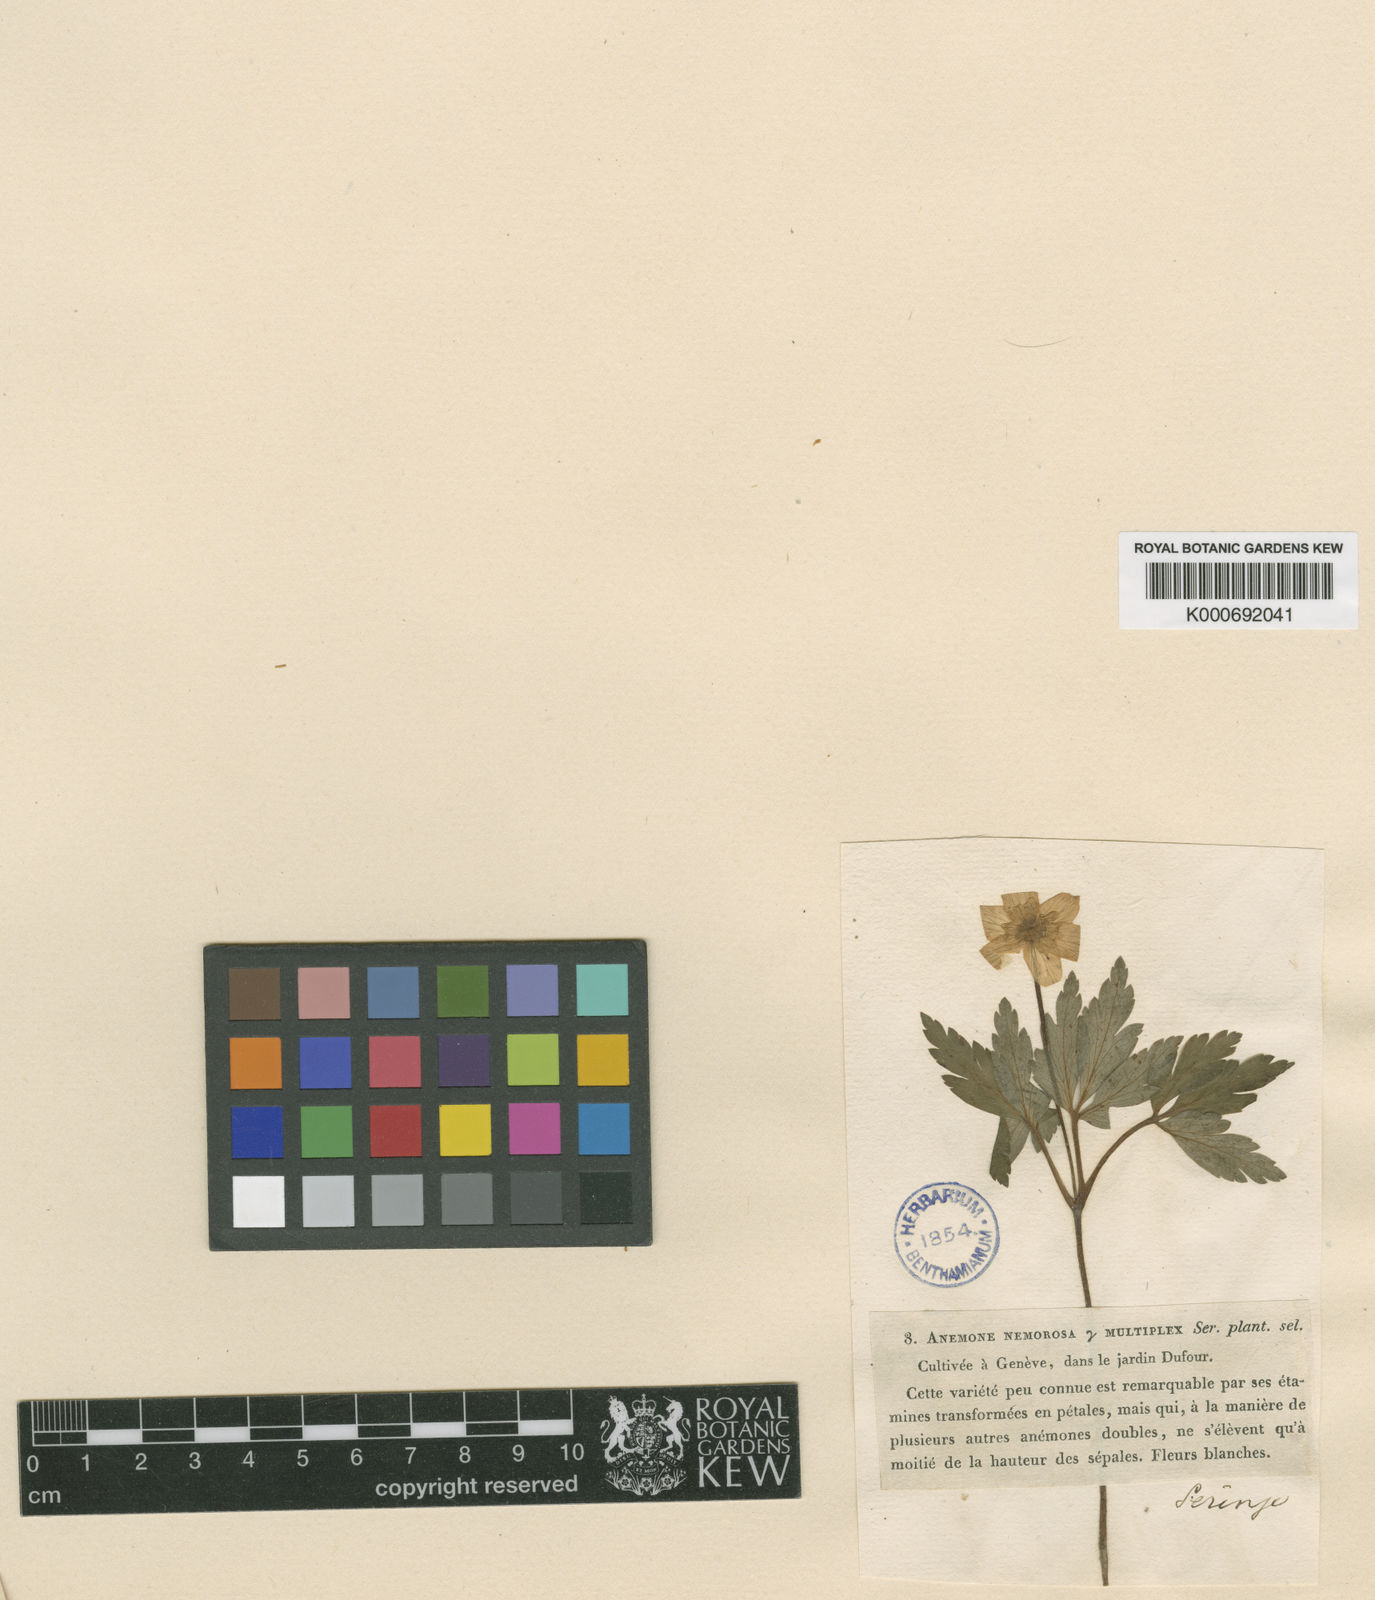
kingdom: Plantae
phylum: Tracheophyta
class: Magnoliopsida
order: Ranunculales
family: Ranunculaceae
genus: Anemone
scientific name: Anemone nemorosa
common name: Wood anemone
